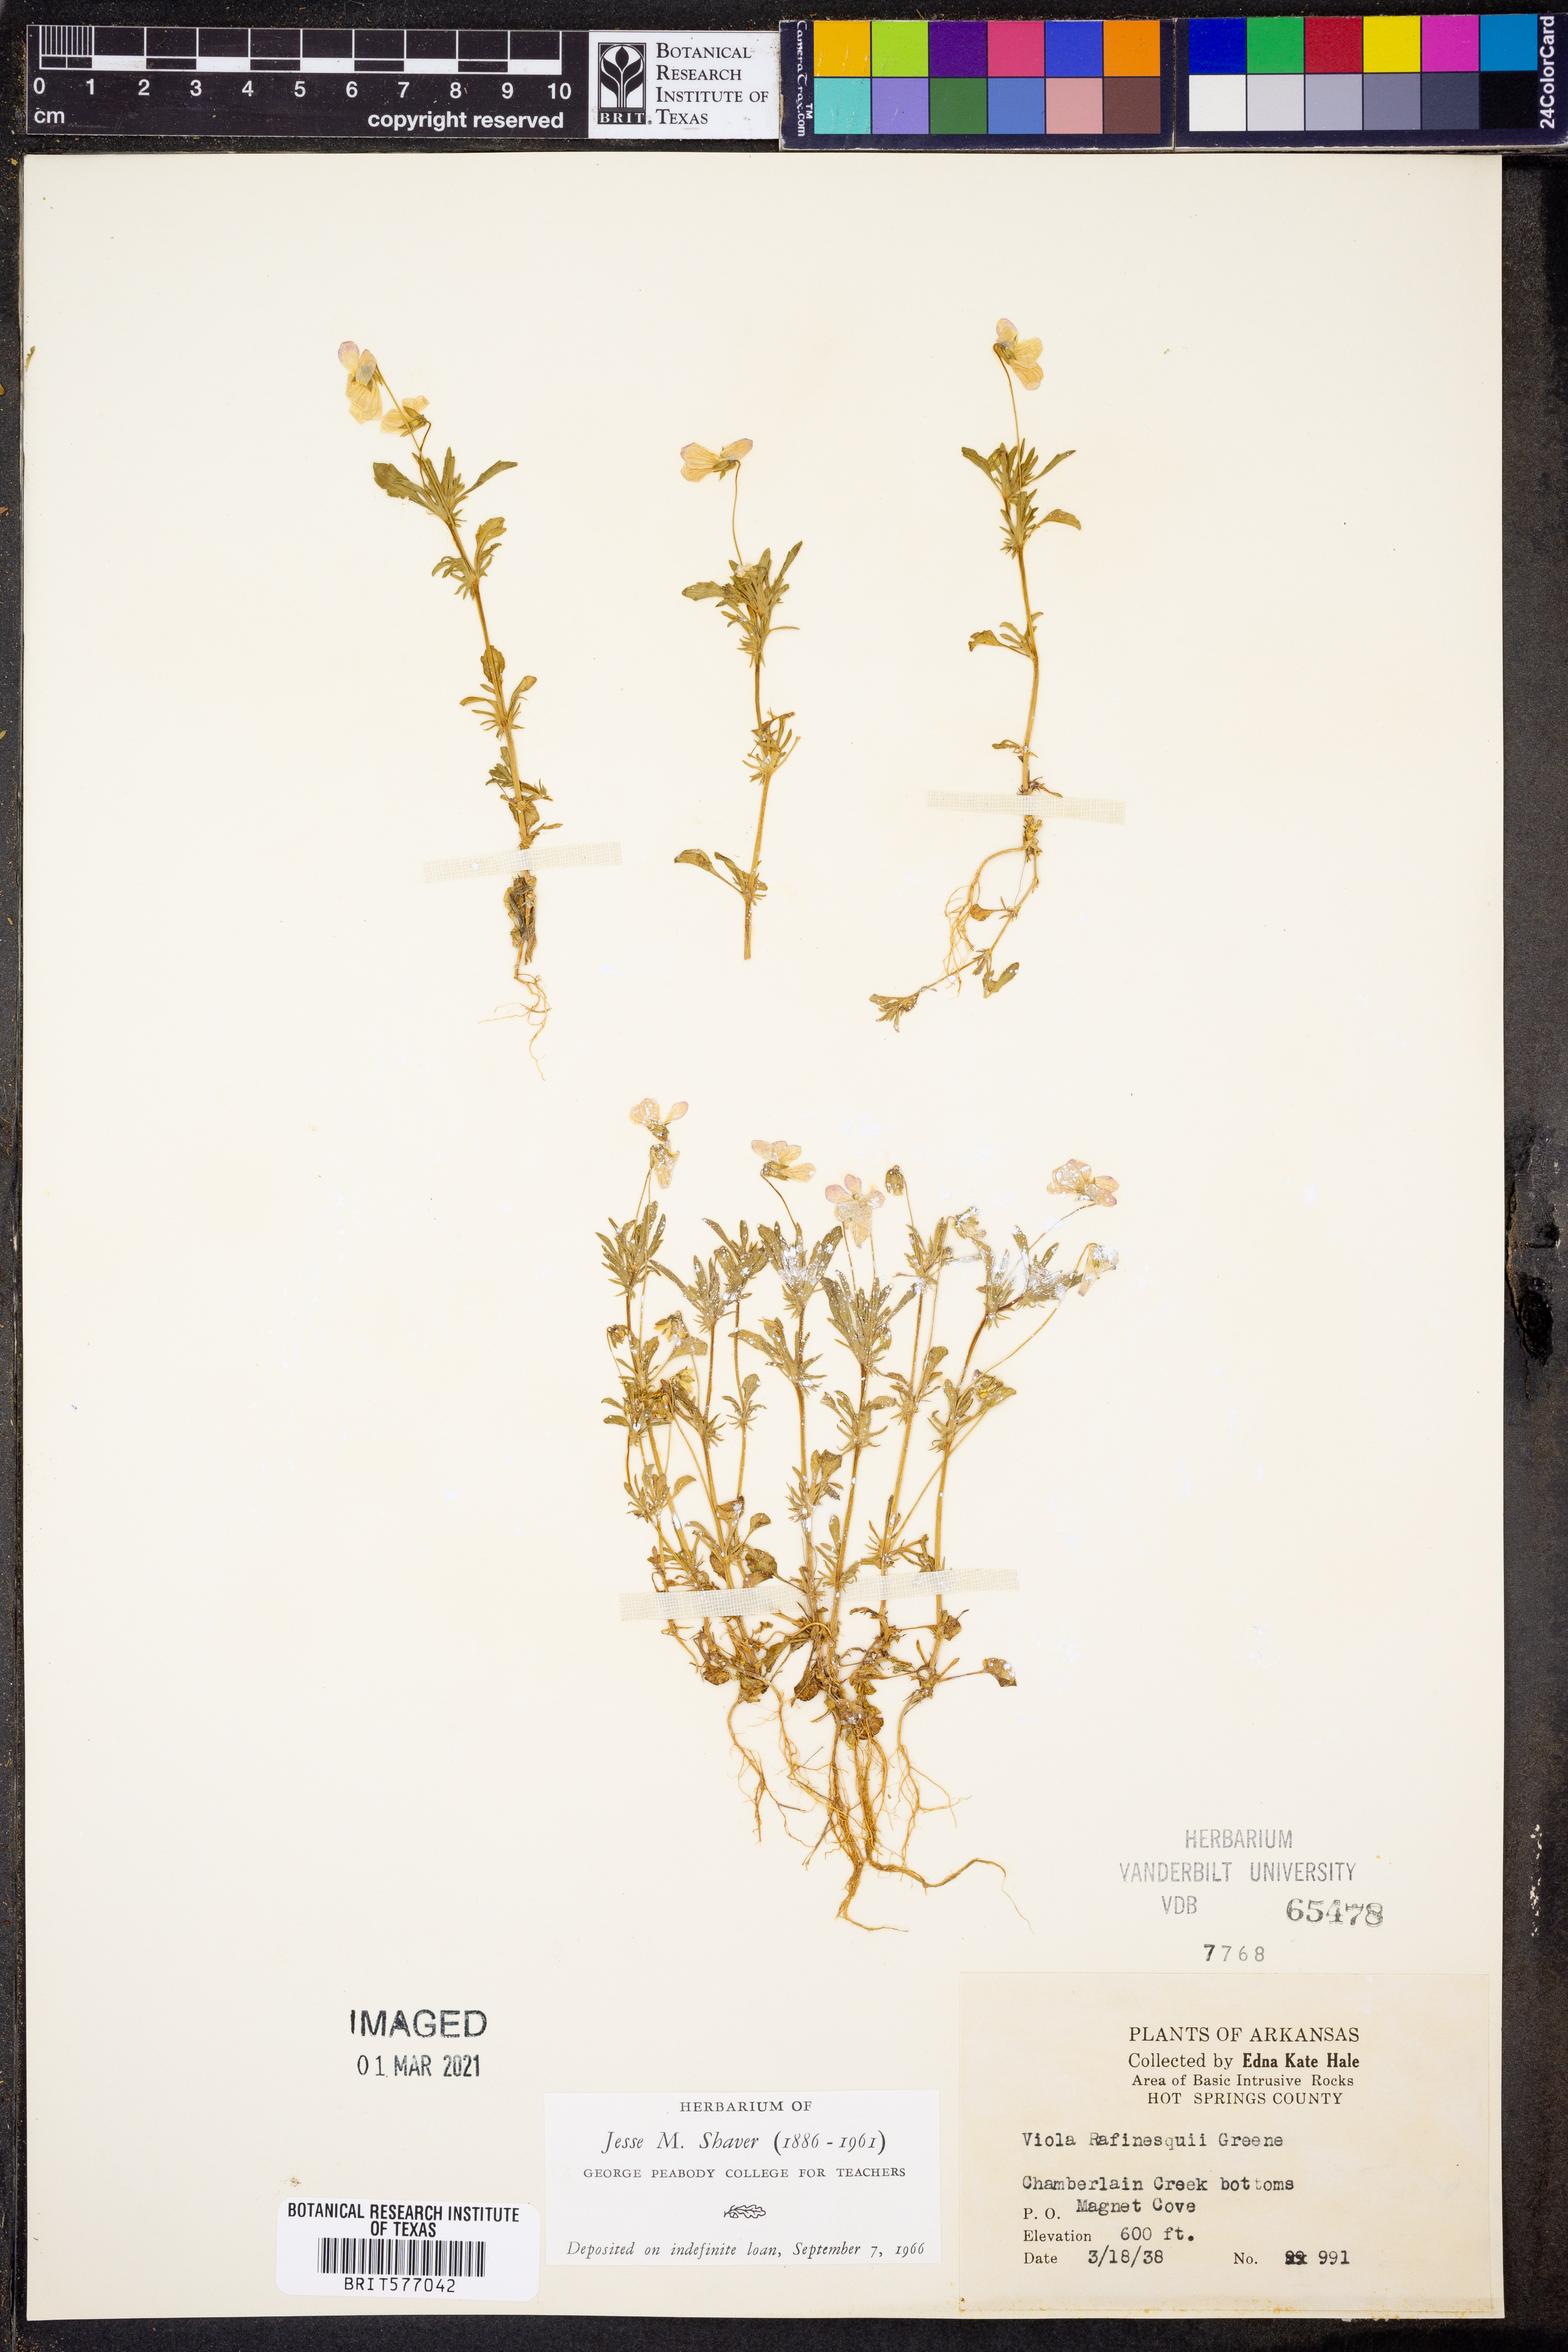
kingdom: Plantae
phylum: Tracheophyta
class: Magnoliopsida
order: Malpighiales
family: Violaceae
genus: Viola
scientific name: Viola rafinesquei
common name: American field pansy
